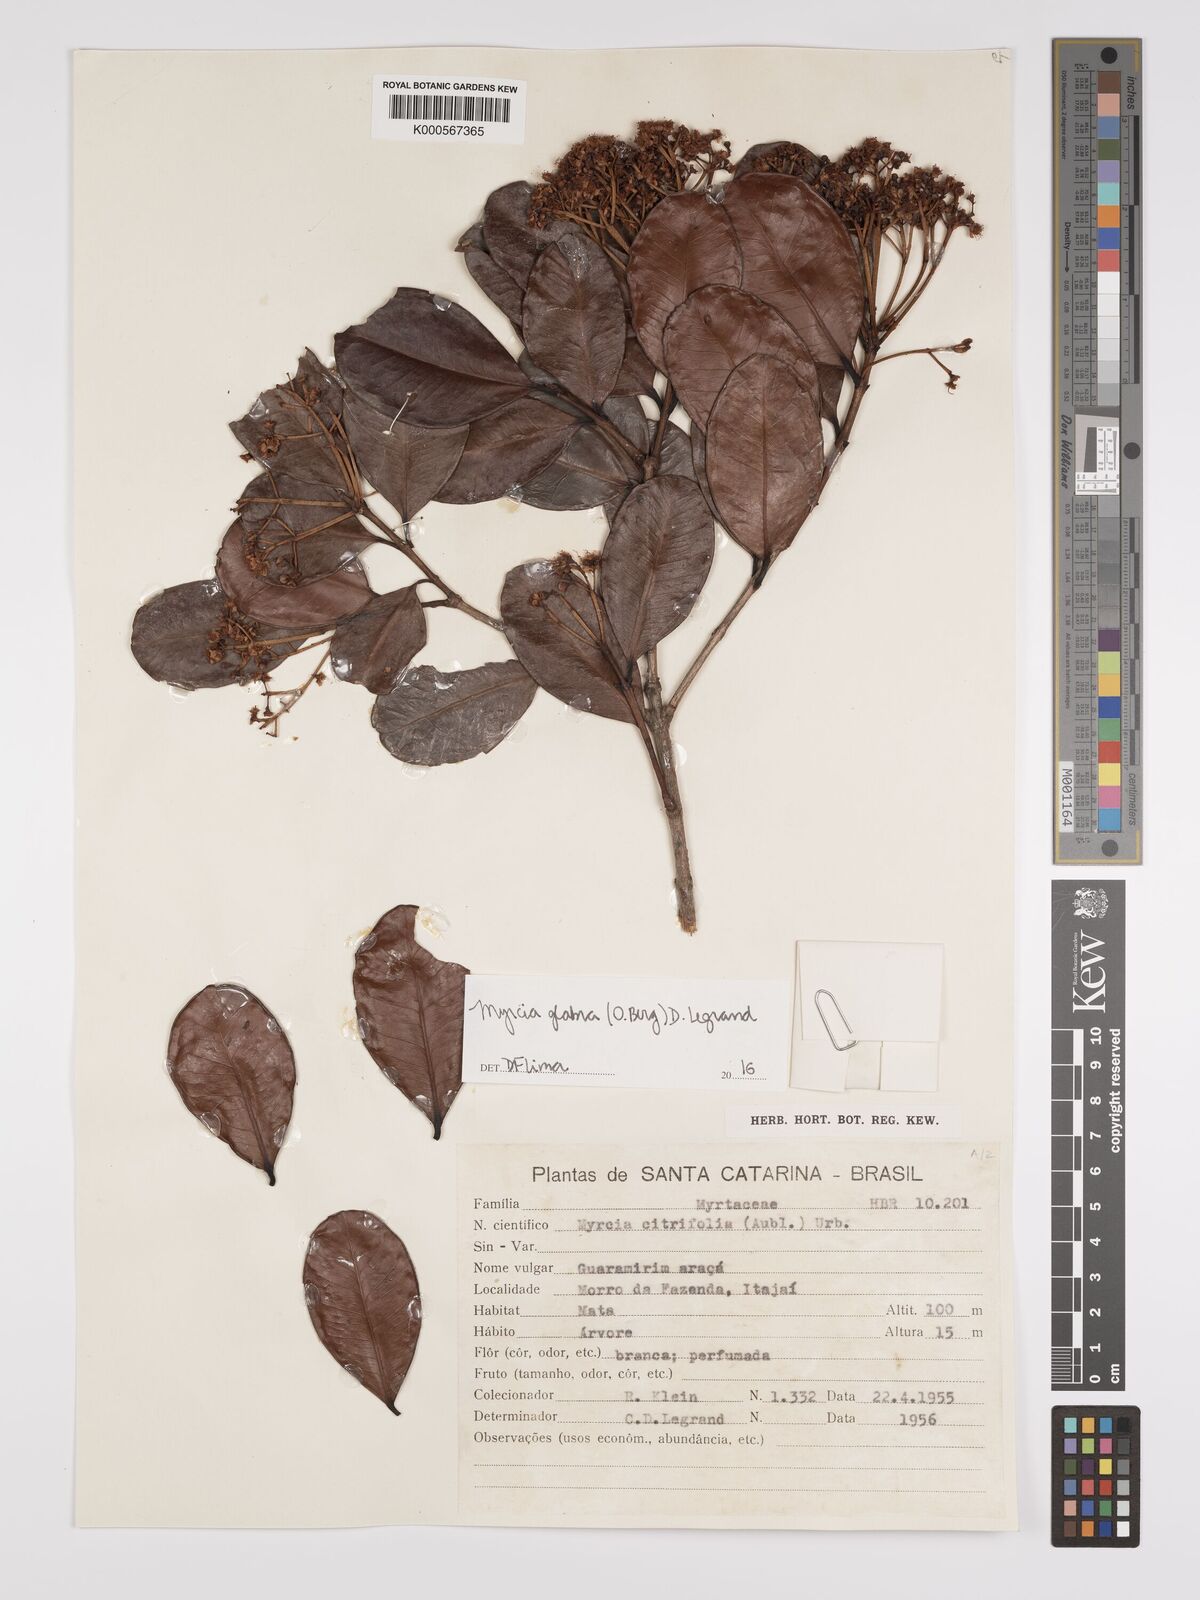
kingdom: Plantae
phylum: Tracheophyta
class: Magnoliopsida
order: Myrtales
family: Myrtaceae
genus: Myrcia
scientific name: Myrcia glabra
